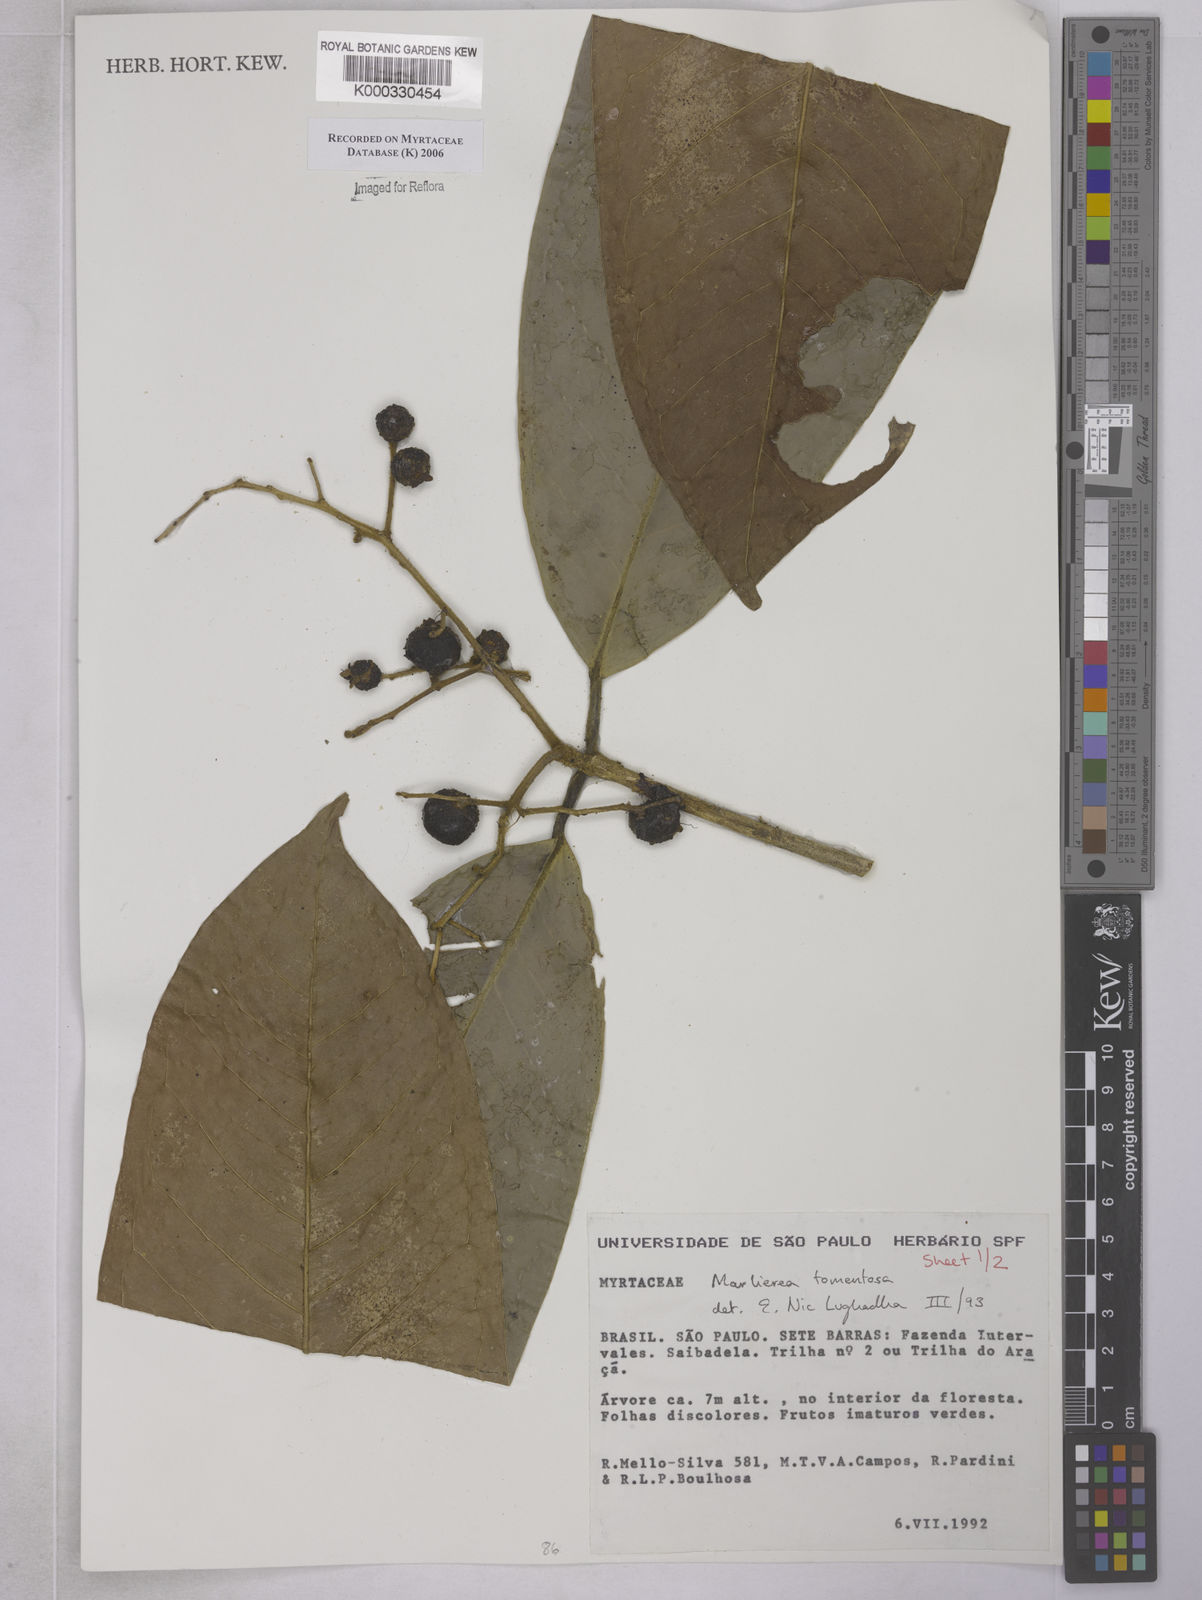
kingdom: Plantae
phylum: Tracheophyta
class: Magnoliopsida
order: Myrtales
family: Myrtaceae
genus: Myrcia
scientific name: Myrcia neotomentosa
